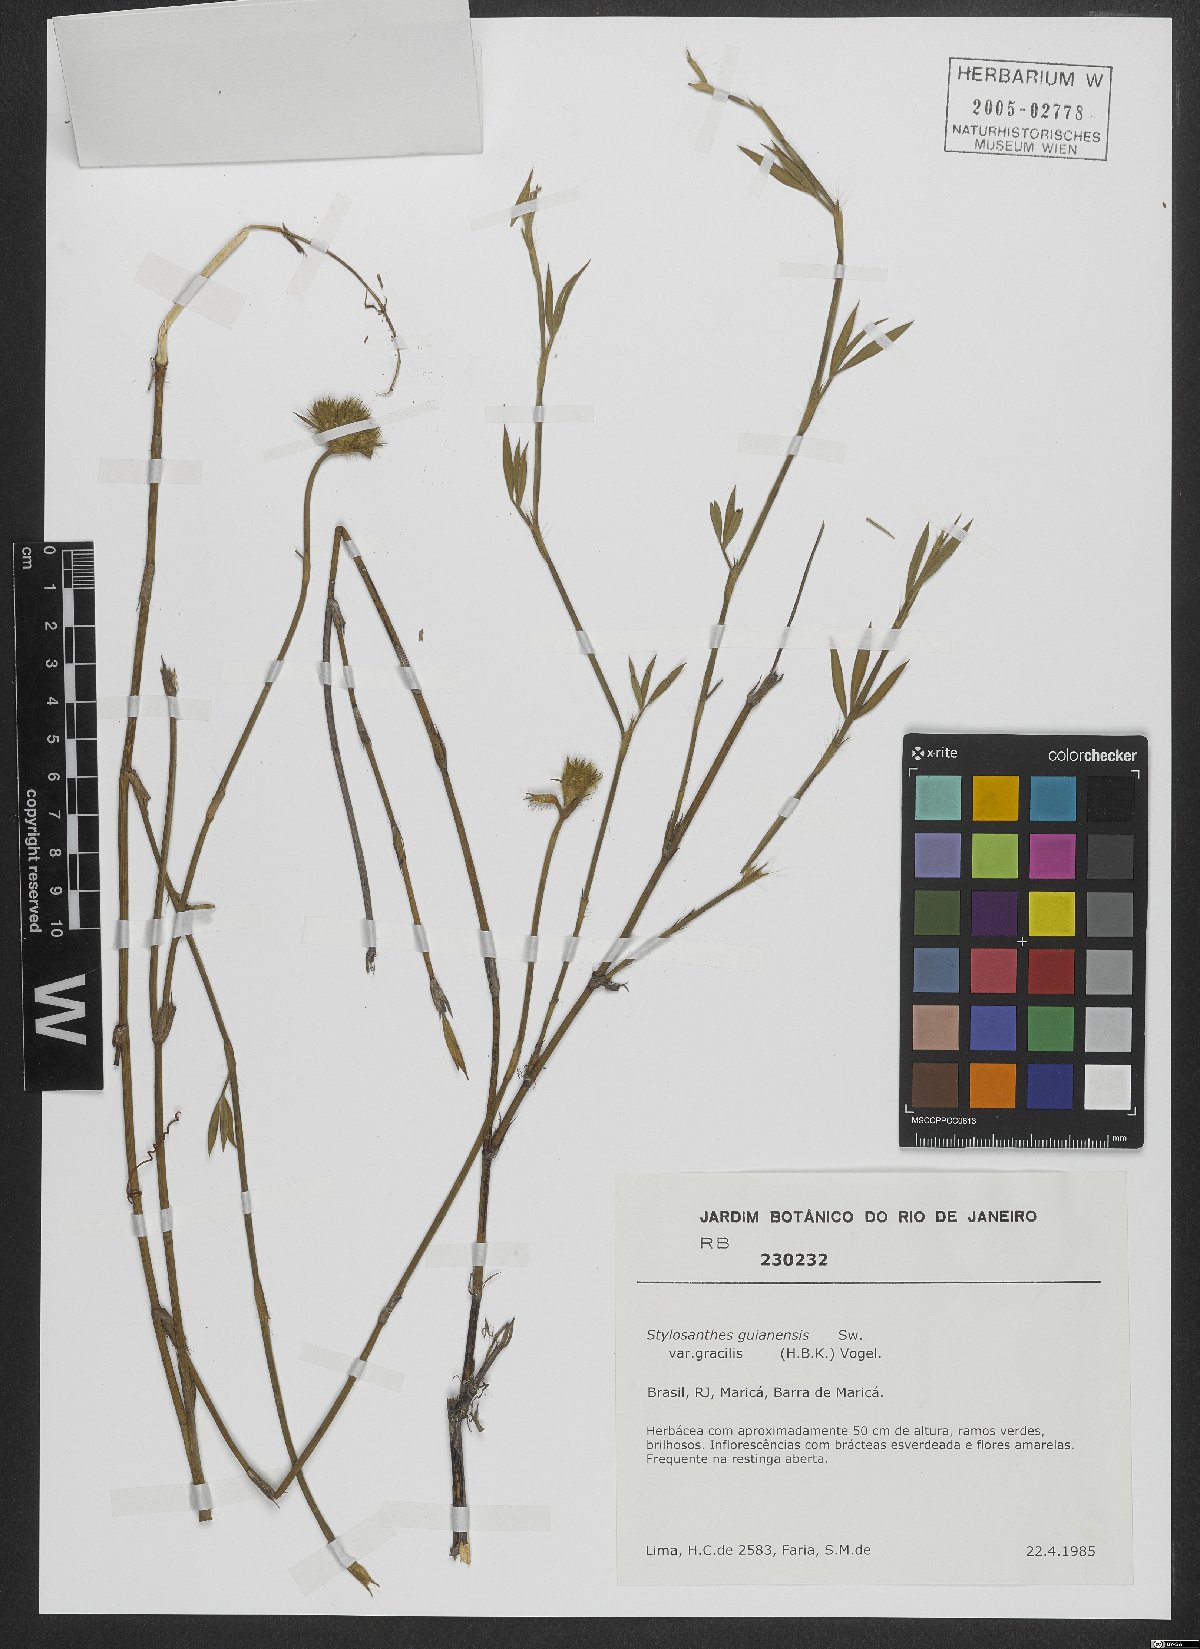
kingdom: Plantae
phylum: Tracheophyta
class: Magnoliopsida
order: Fabales
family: Fabaceae
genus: Stylosanthes
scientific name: Stylosanthes guianensis
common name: Pencil flower
